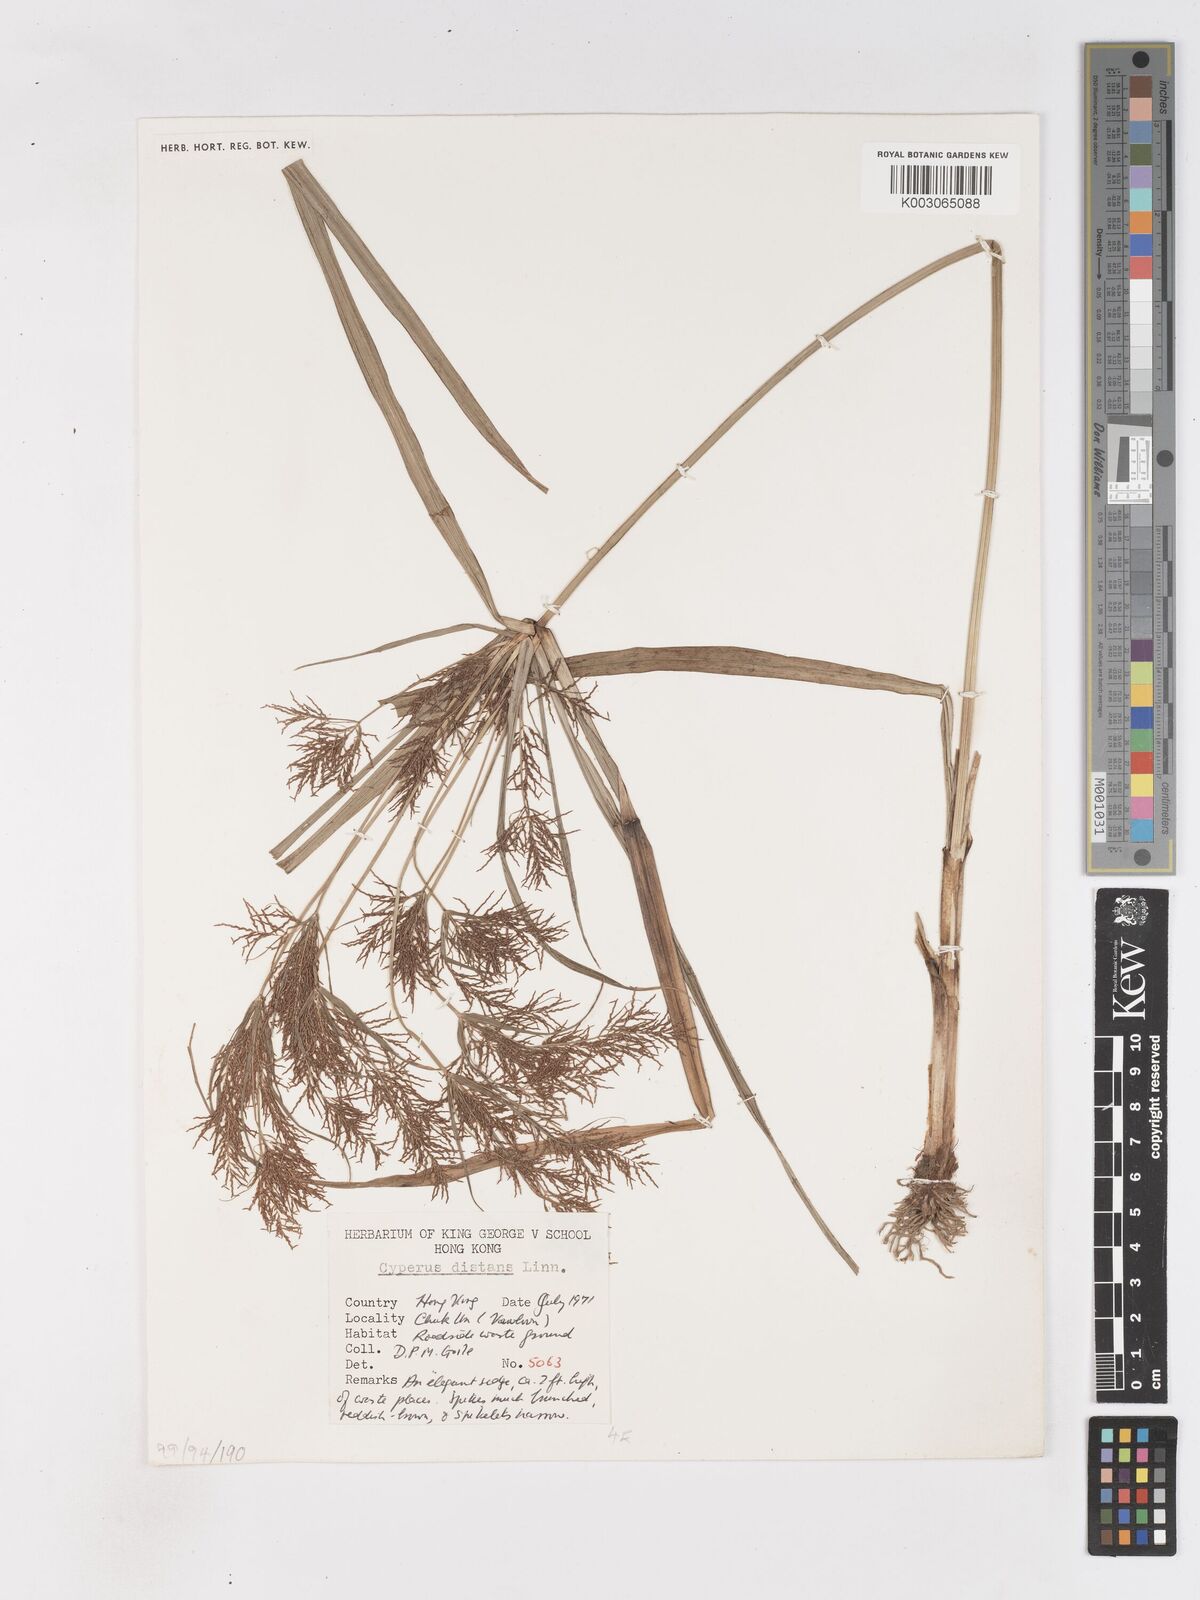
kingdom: Plantae
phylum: Tracheophyta
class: Liliopsida
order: Poales
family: Cyperaceae
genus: Cyperus
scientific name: Cyperus difformis
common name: Variable flatsedge
